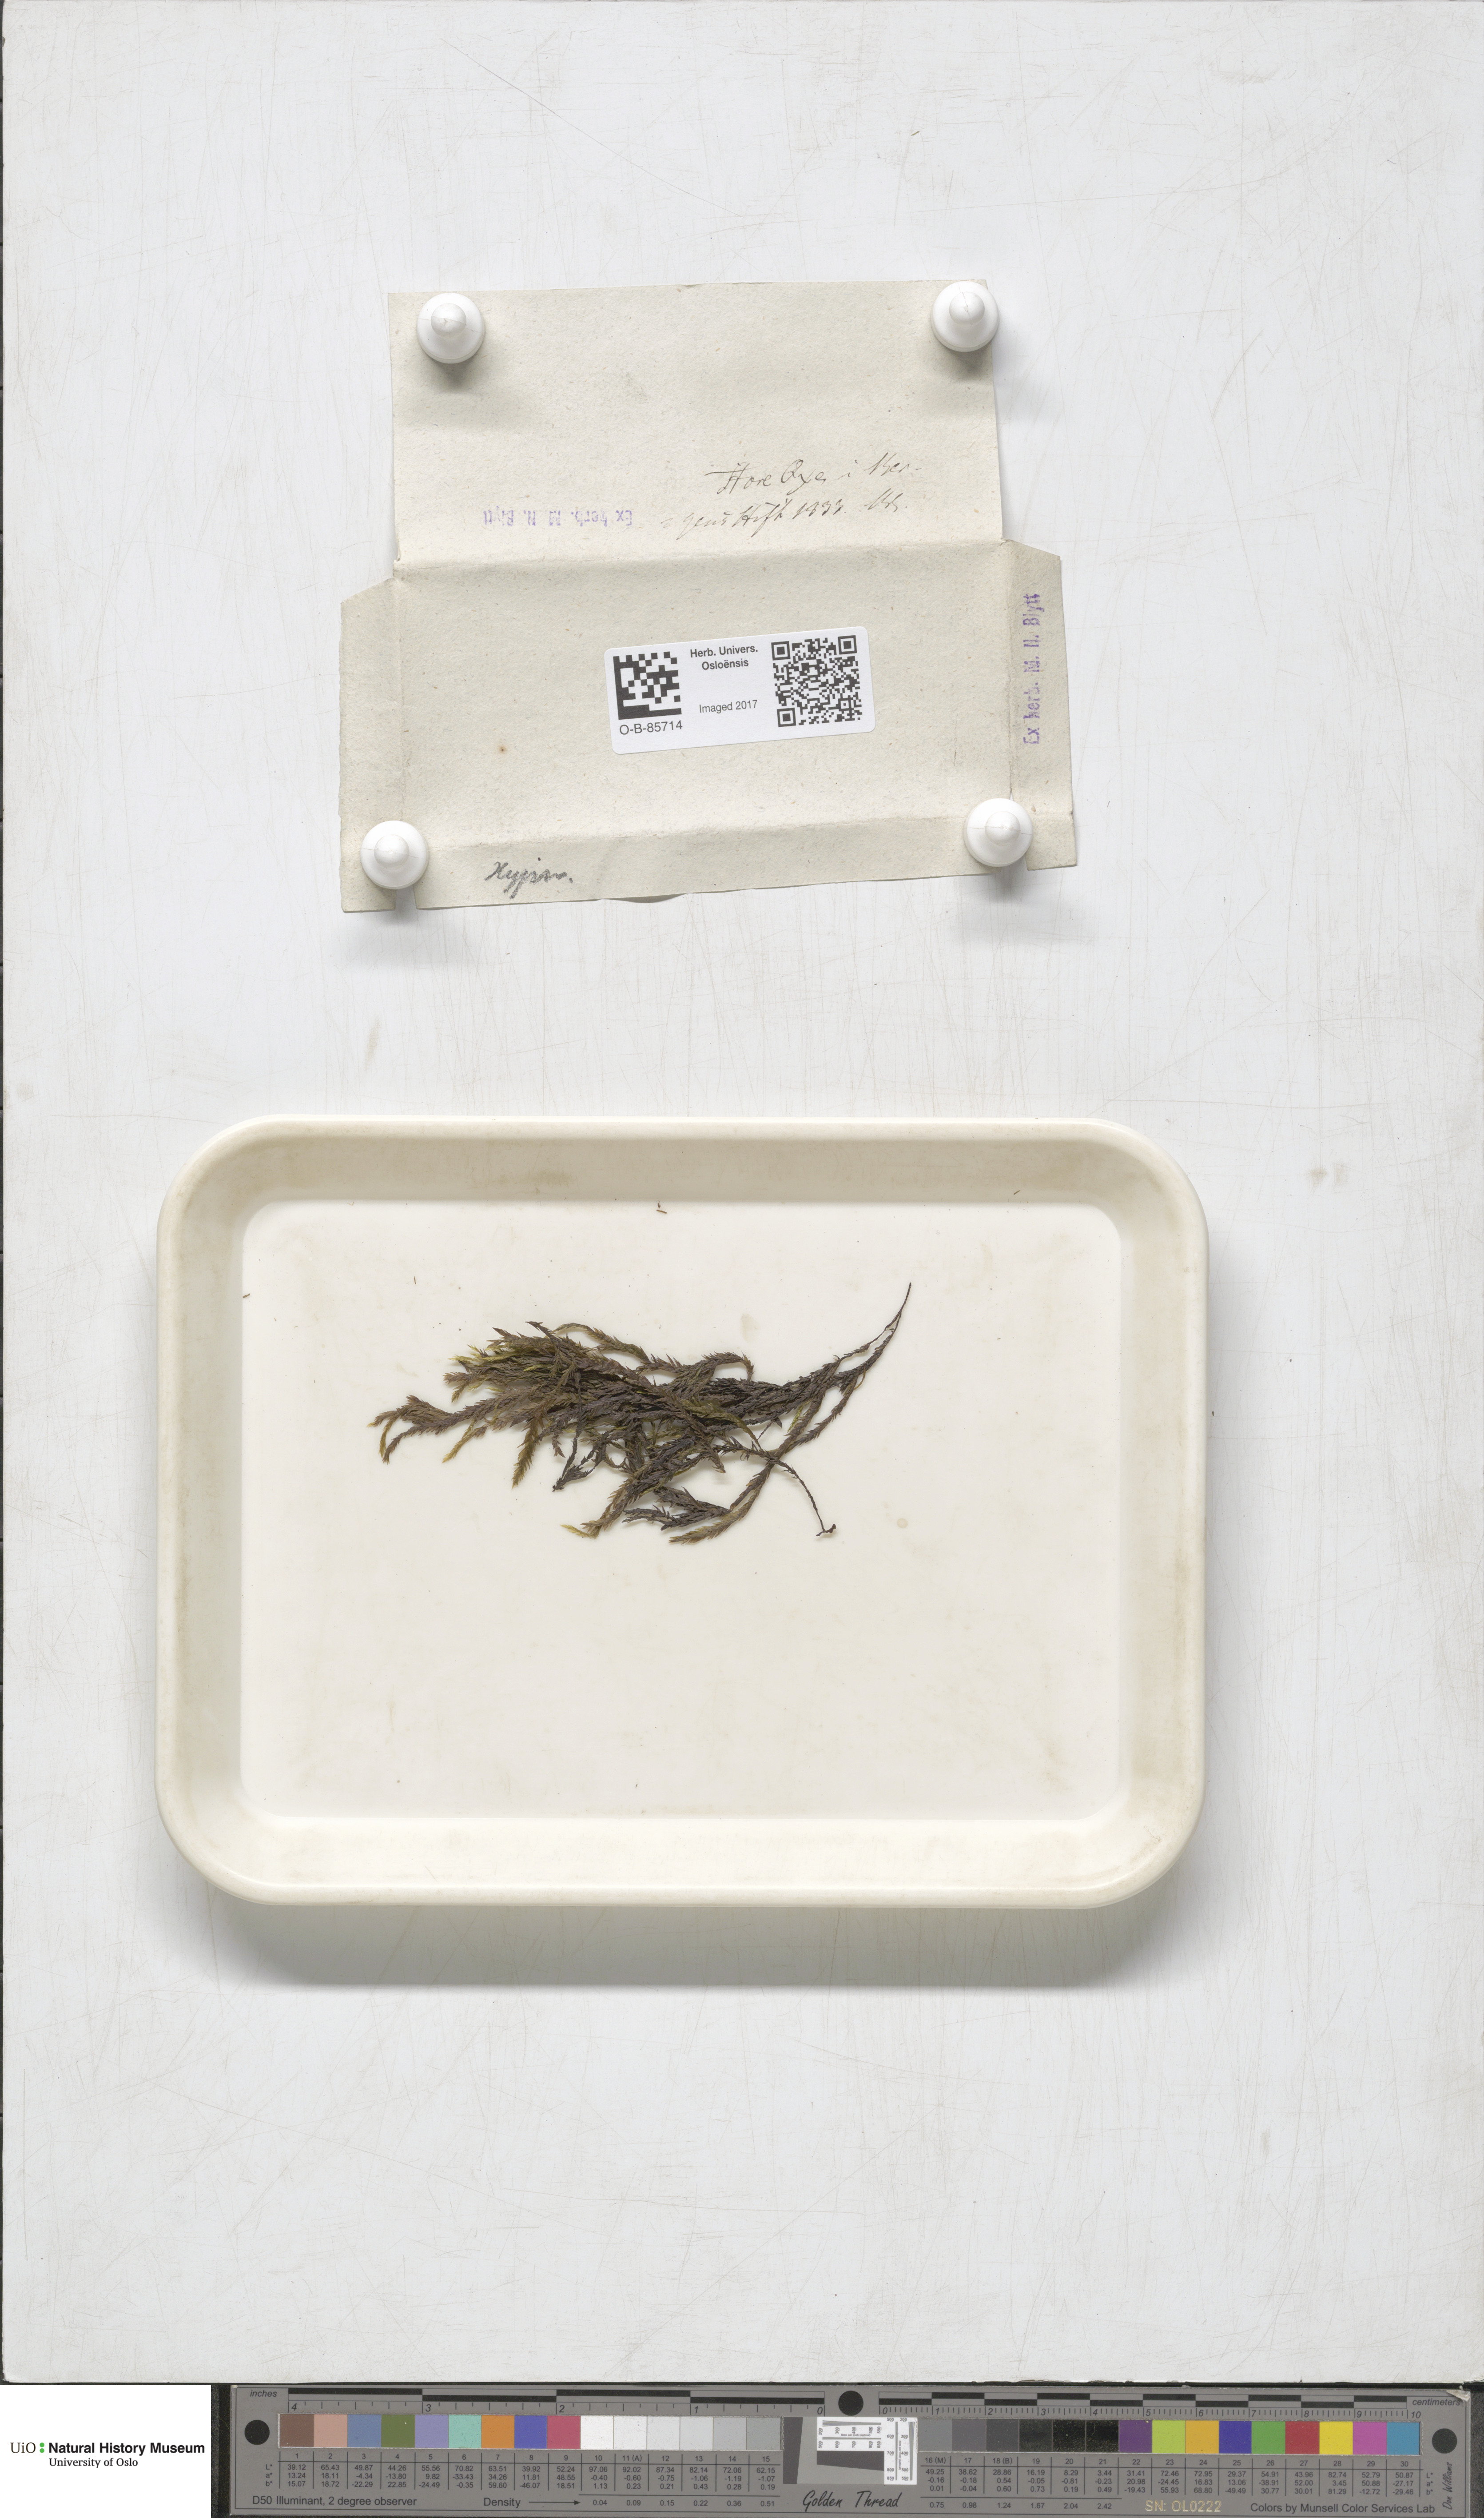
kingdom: Plantae
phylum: Bryophyta
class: Bryopsida
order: Hypnales
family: Fontinalaceae
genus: Fontinalis
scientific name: Fontinalis
